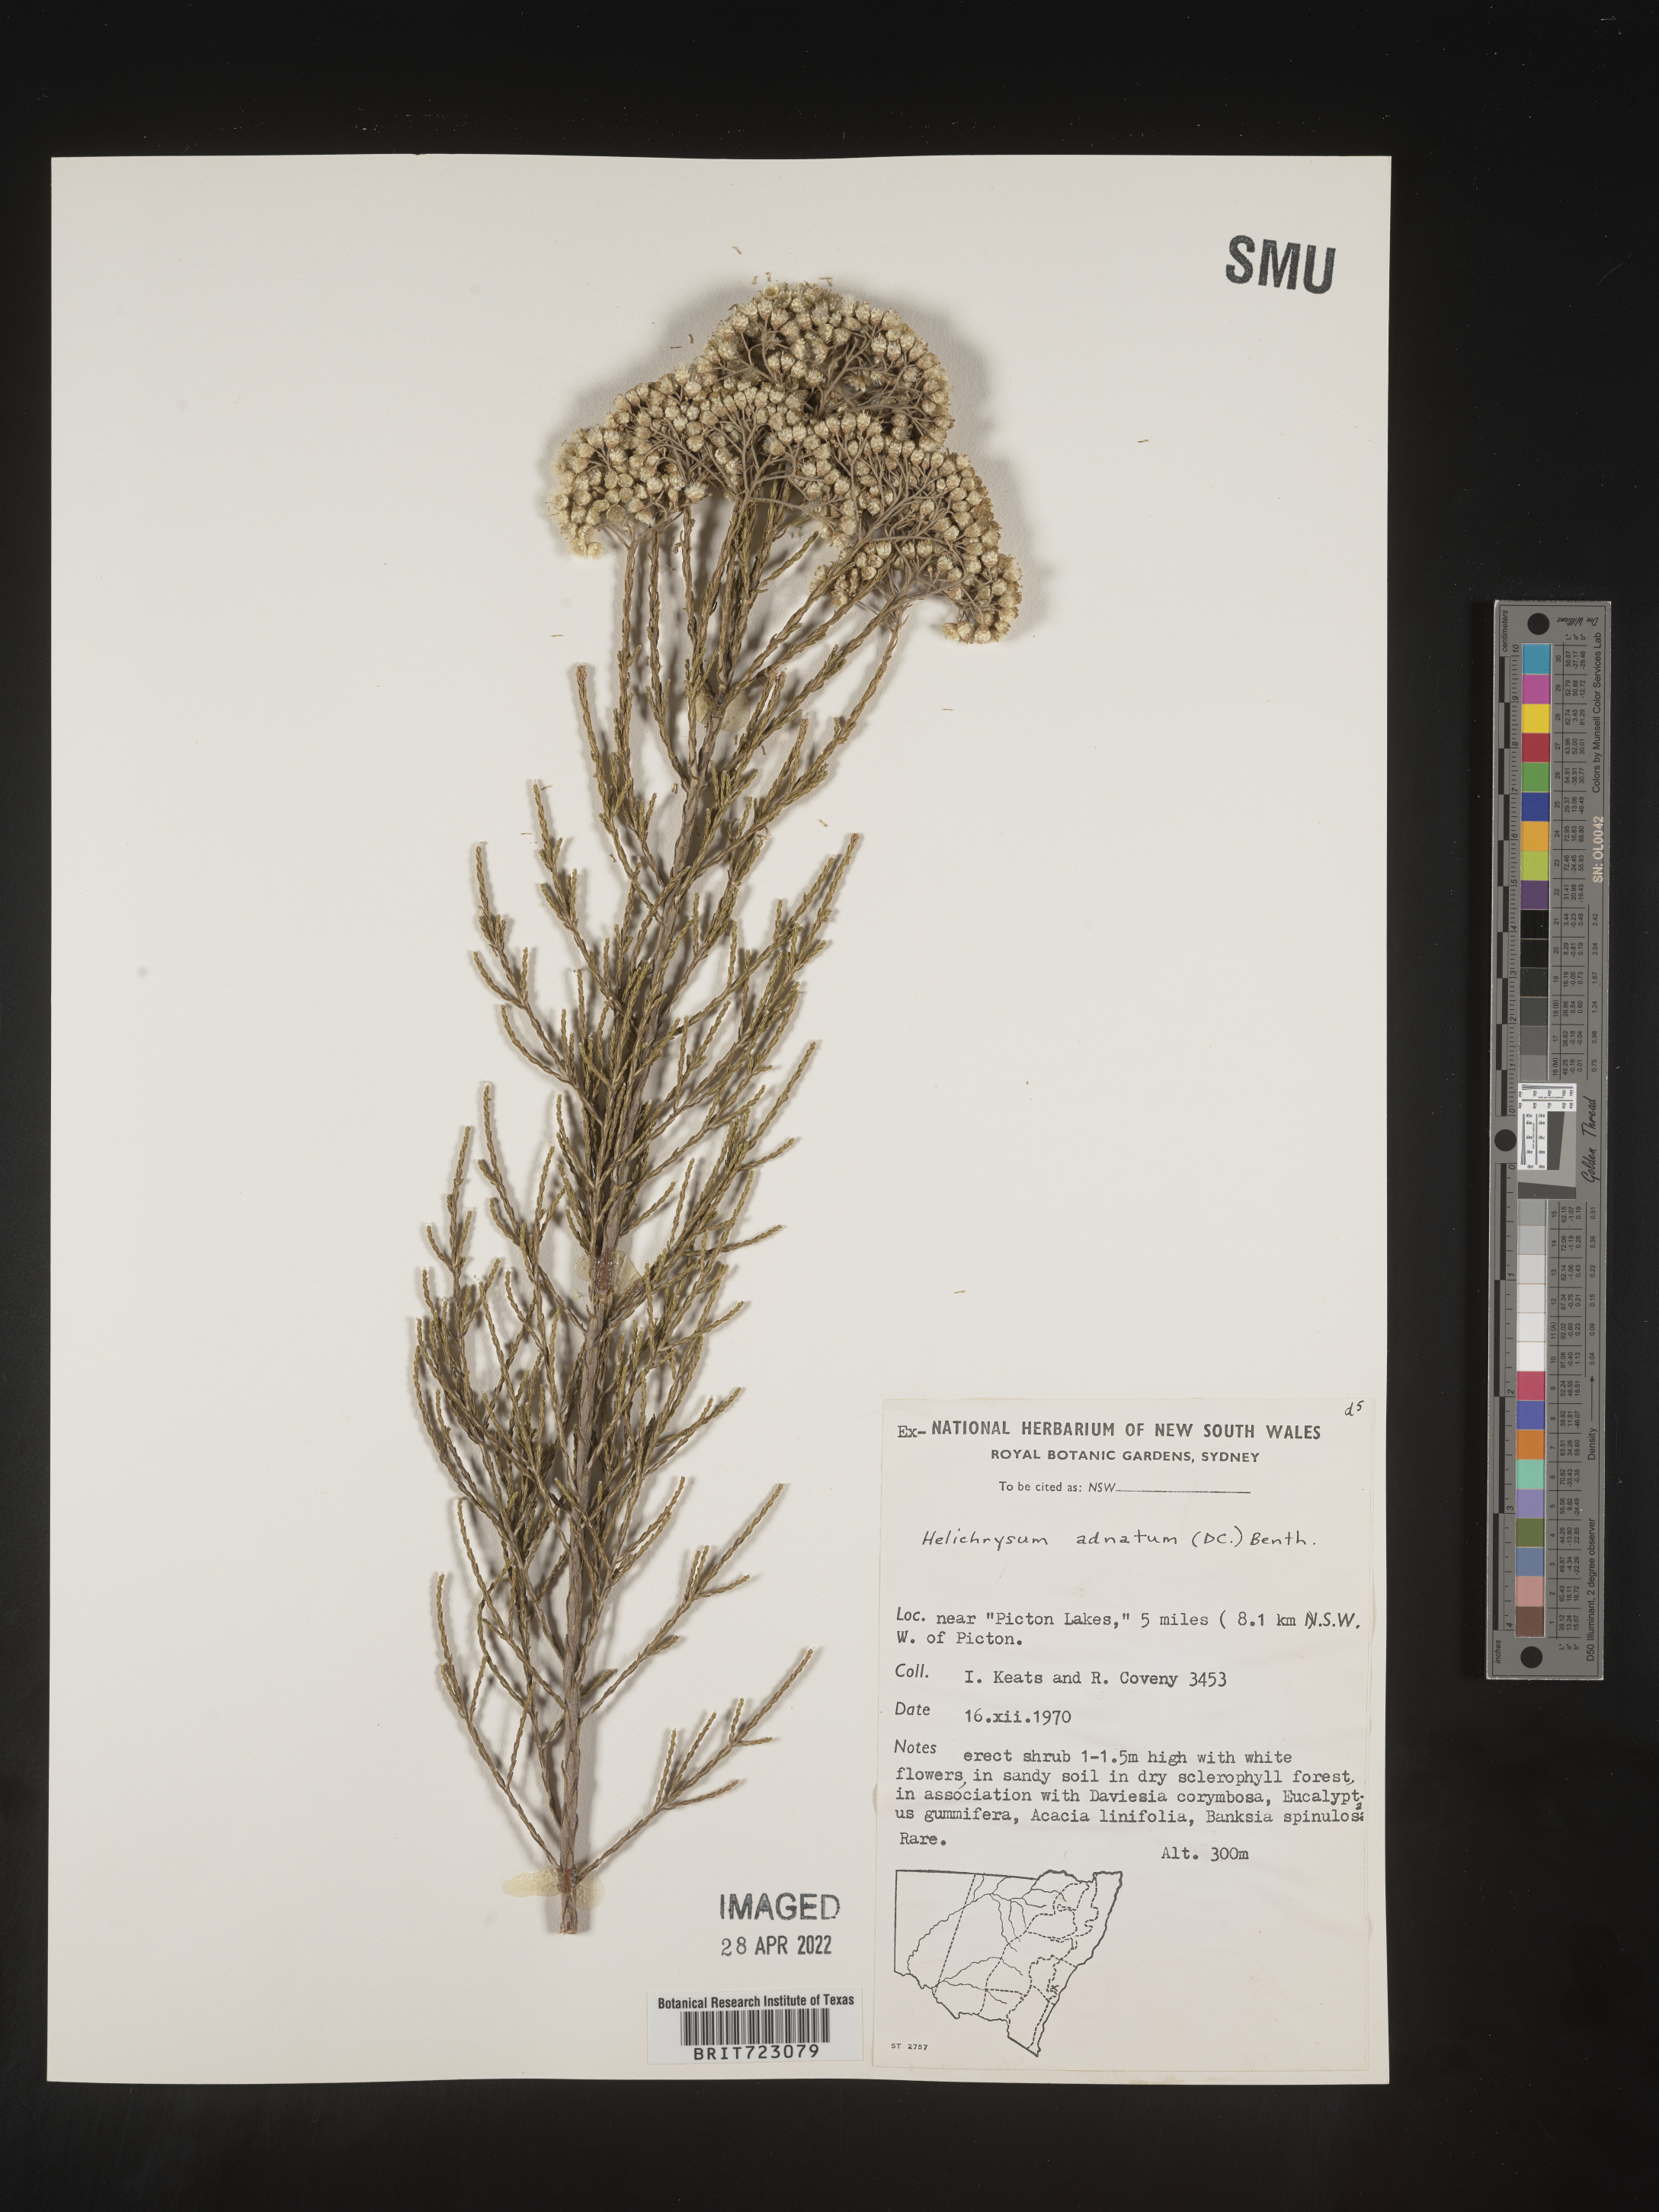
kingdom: Plantae
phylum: Tracheophyta
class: Magnoliopsida
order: Asterales
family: Asteraceae
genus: Helichrysum
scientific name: Helichrysum
